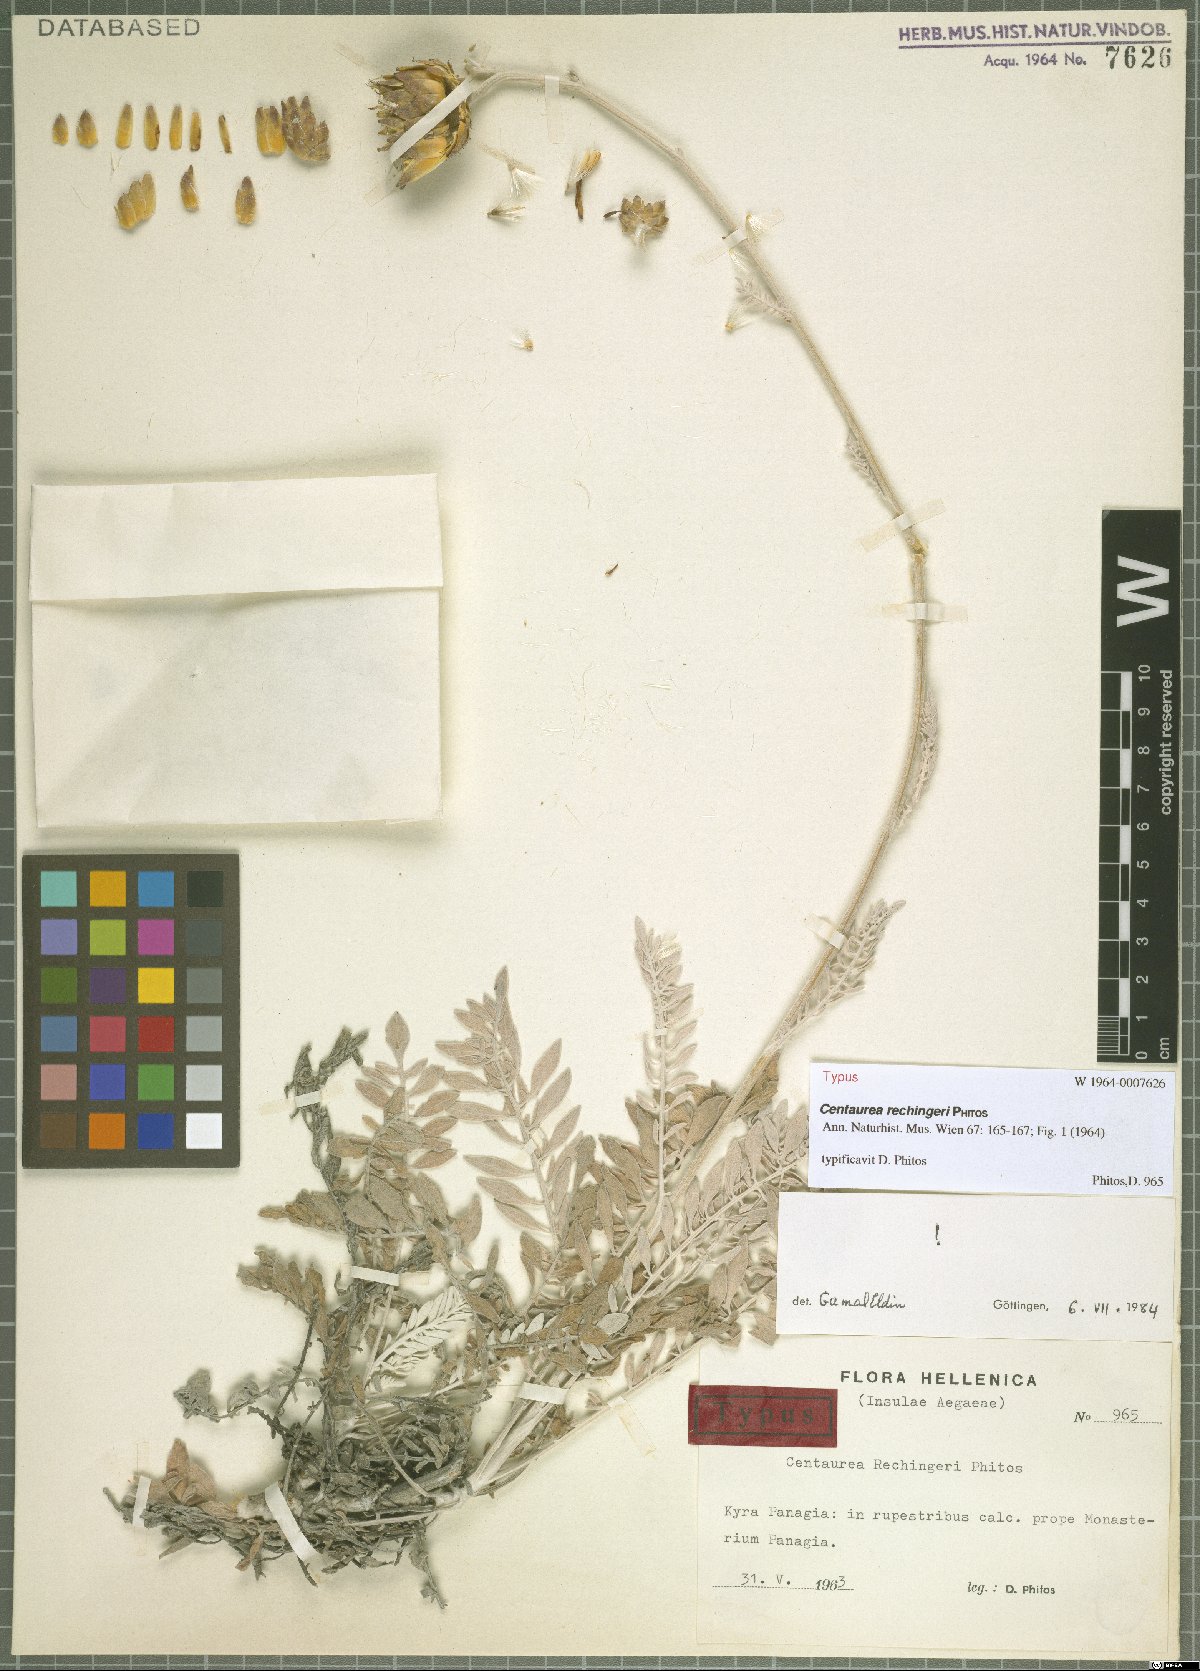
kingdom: Plantae
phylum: Tracheophyta
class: Magnoliopsida
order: Asterales
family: Asteraceae
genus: Centaurea
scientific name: Centaurea rechingeri
